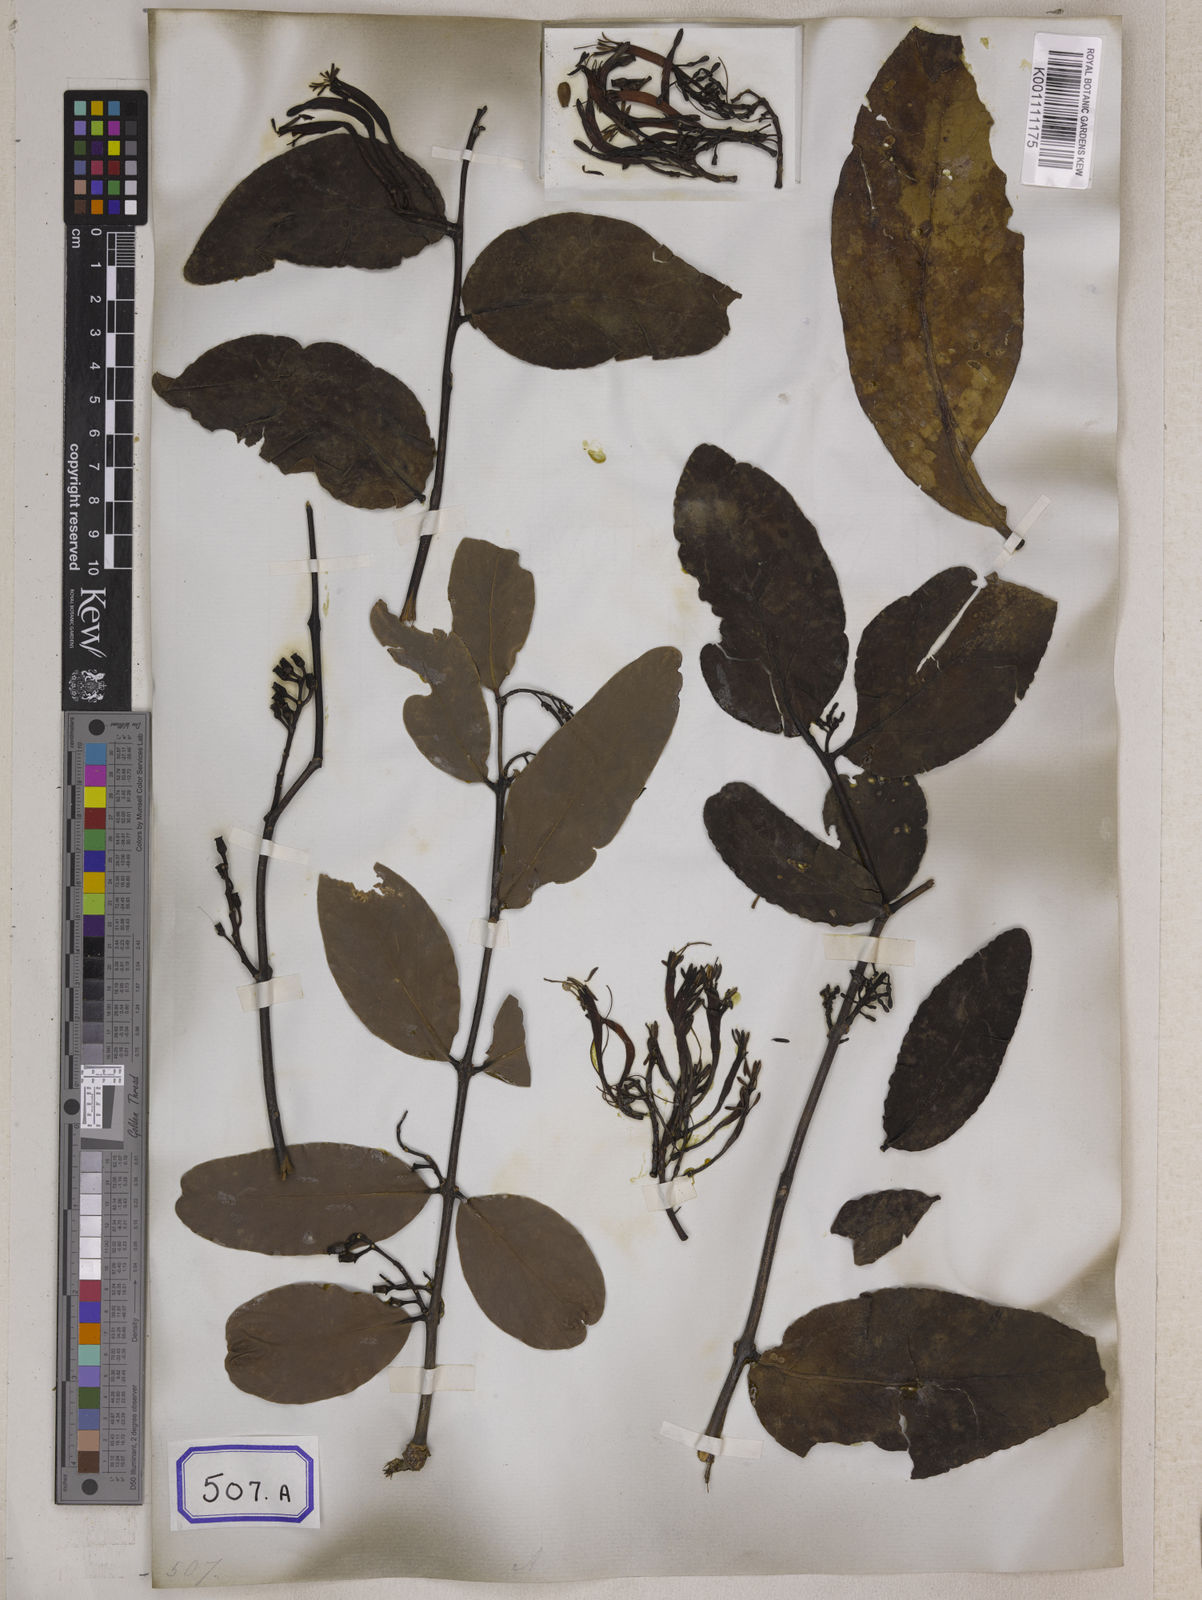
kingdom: Plantae
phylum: Tracheophyta
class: Magnoliopsida
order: Santalales
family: Loranthaceae
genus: Loranthus
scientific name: Loranthus
